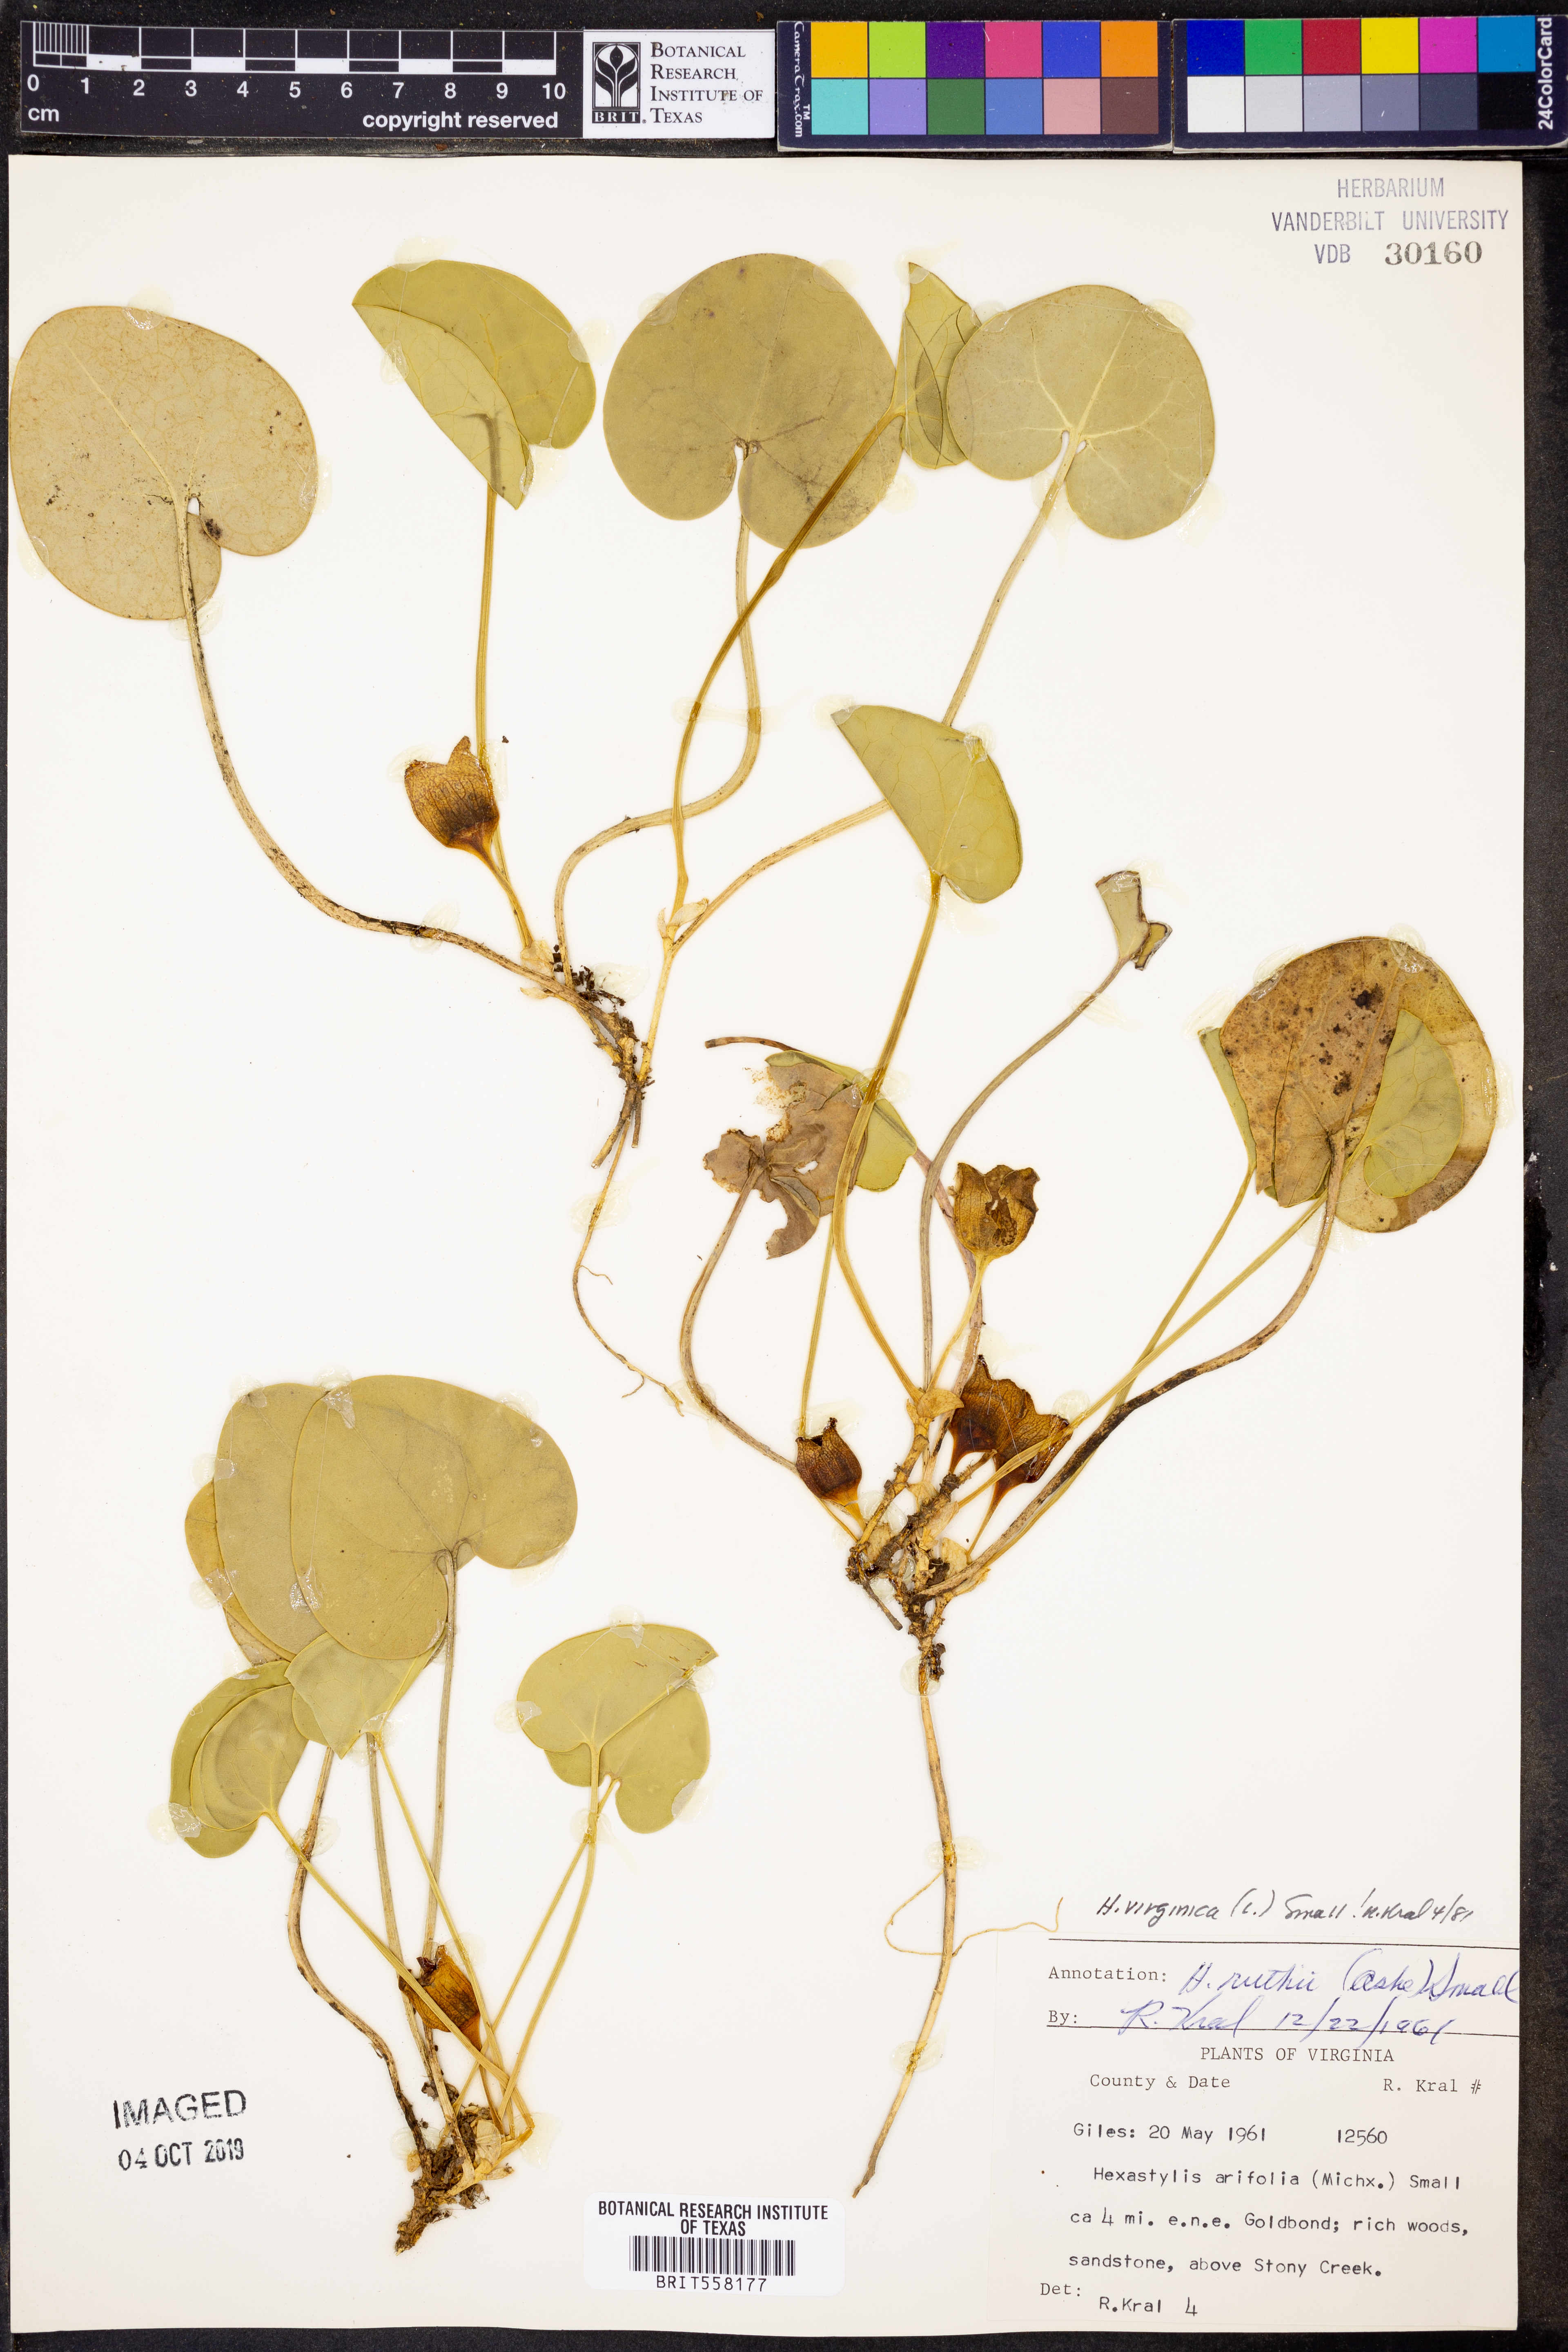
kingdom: Plantae
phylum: Tracheophyta
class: Magnoliopsida
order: Piperales
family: Aristolochiaceae
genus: Hexastylis
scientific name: Hexastylis virginica
